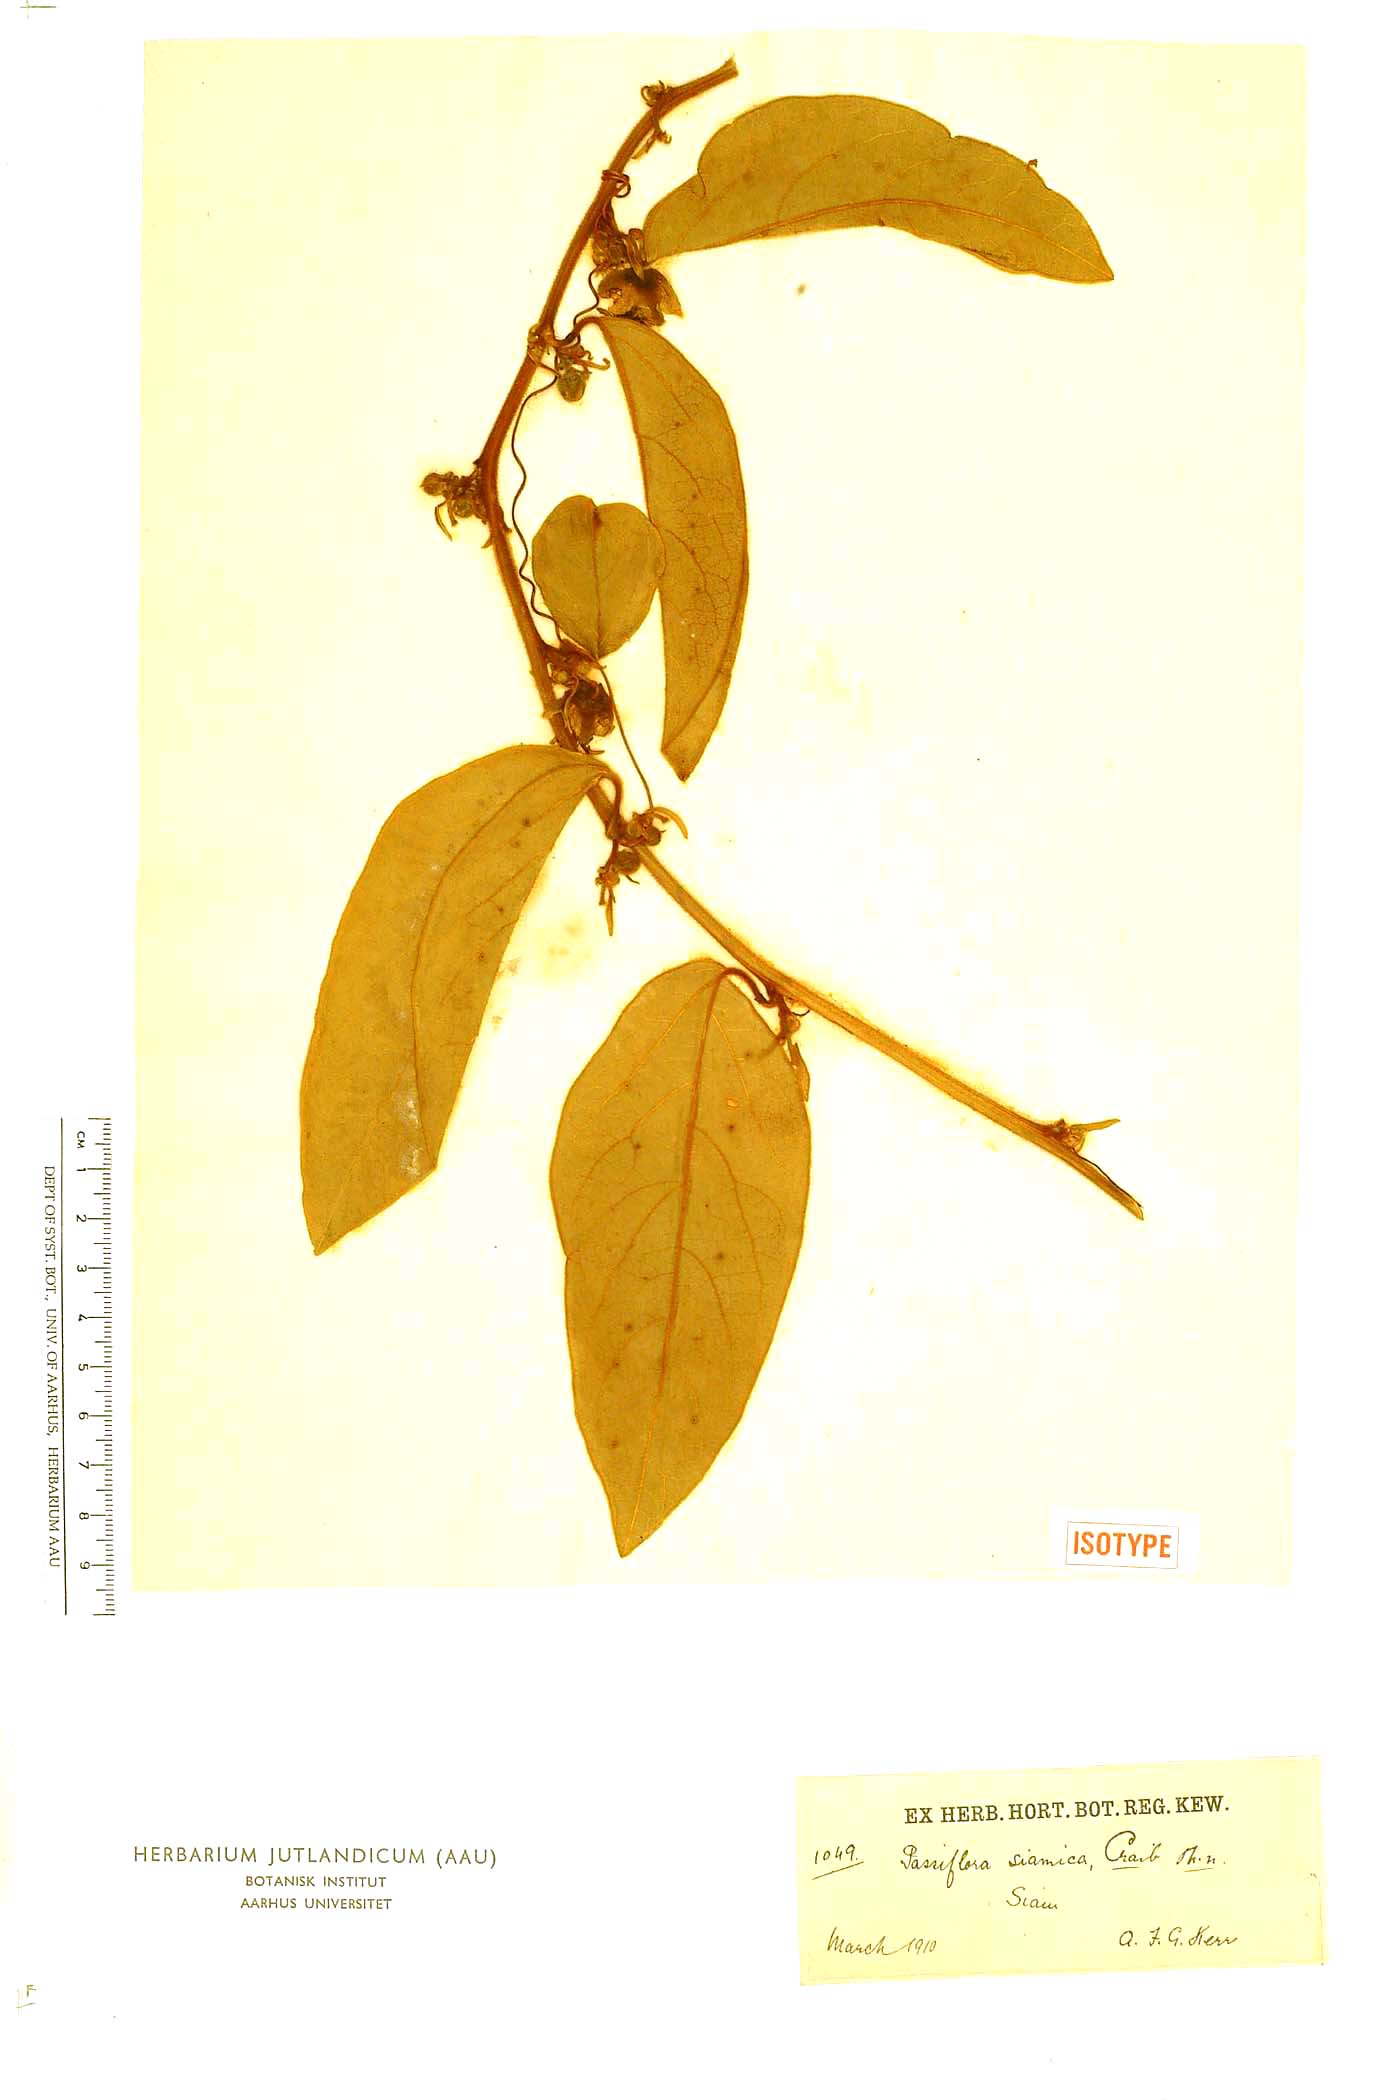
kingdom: Plantae
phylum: Tracheophyta
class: Magnoliopsida
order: Malpighiales
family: Passifloraceae
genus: Passiflora
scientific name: Passiflora siamica
